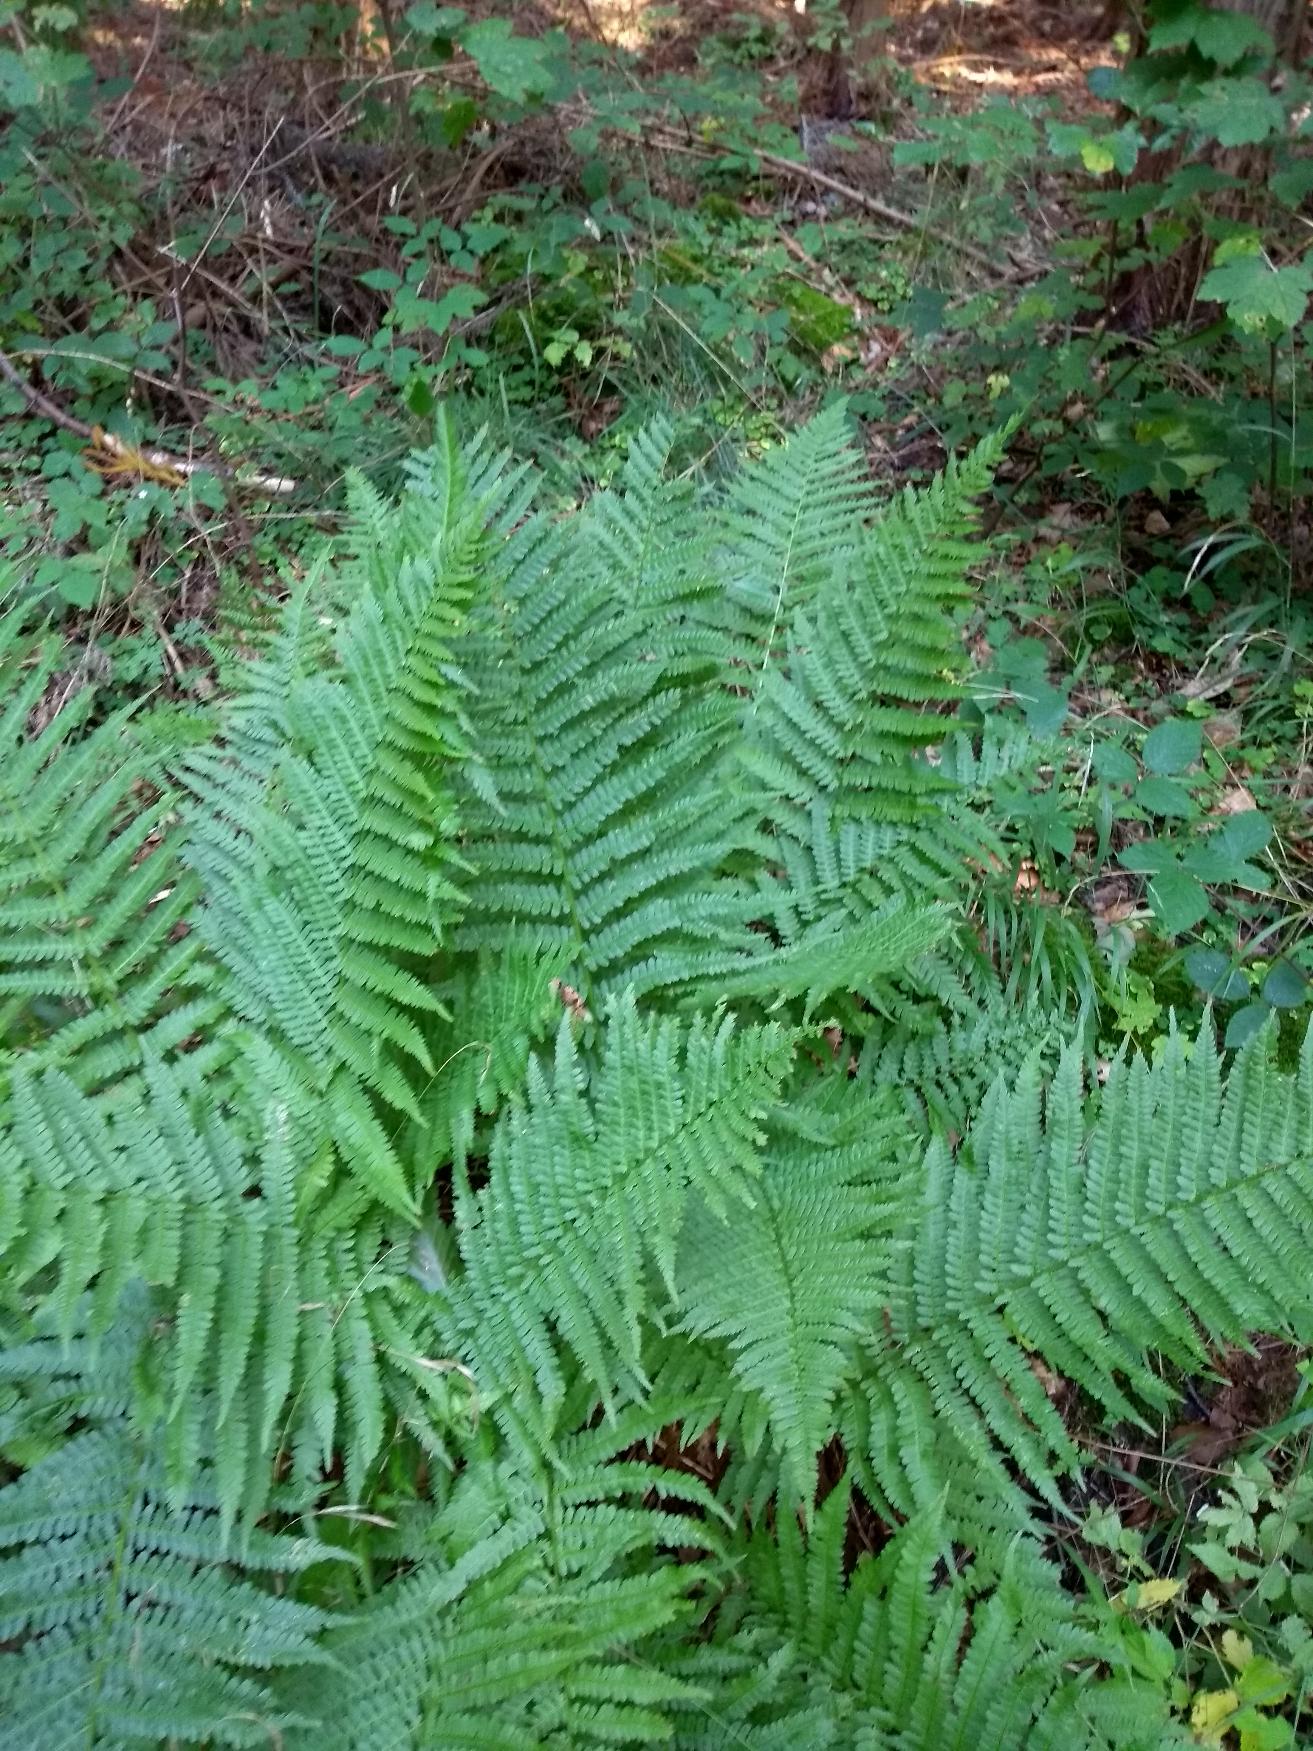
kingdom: Plantae
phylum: Tracheophyta
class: Polypodiopsida
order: Polypodiales
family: Athyriaceae
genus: Athyrium
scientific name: Athyrium filix-femina
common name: Fjerbregne
